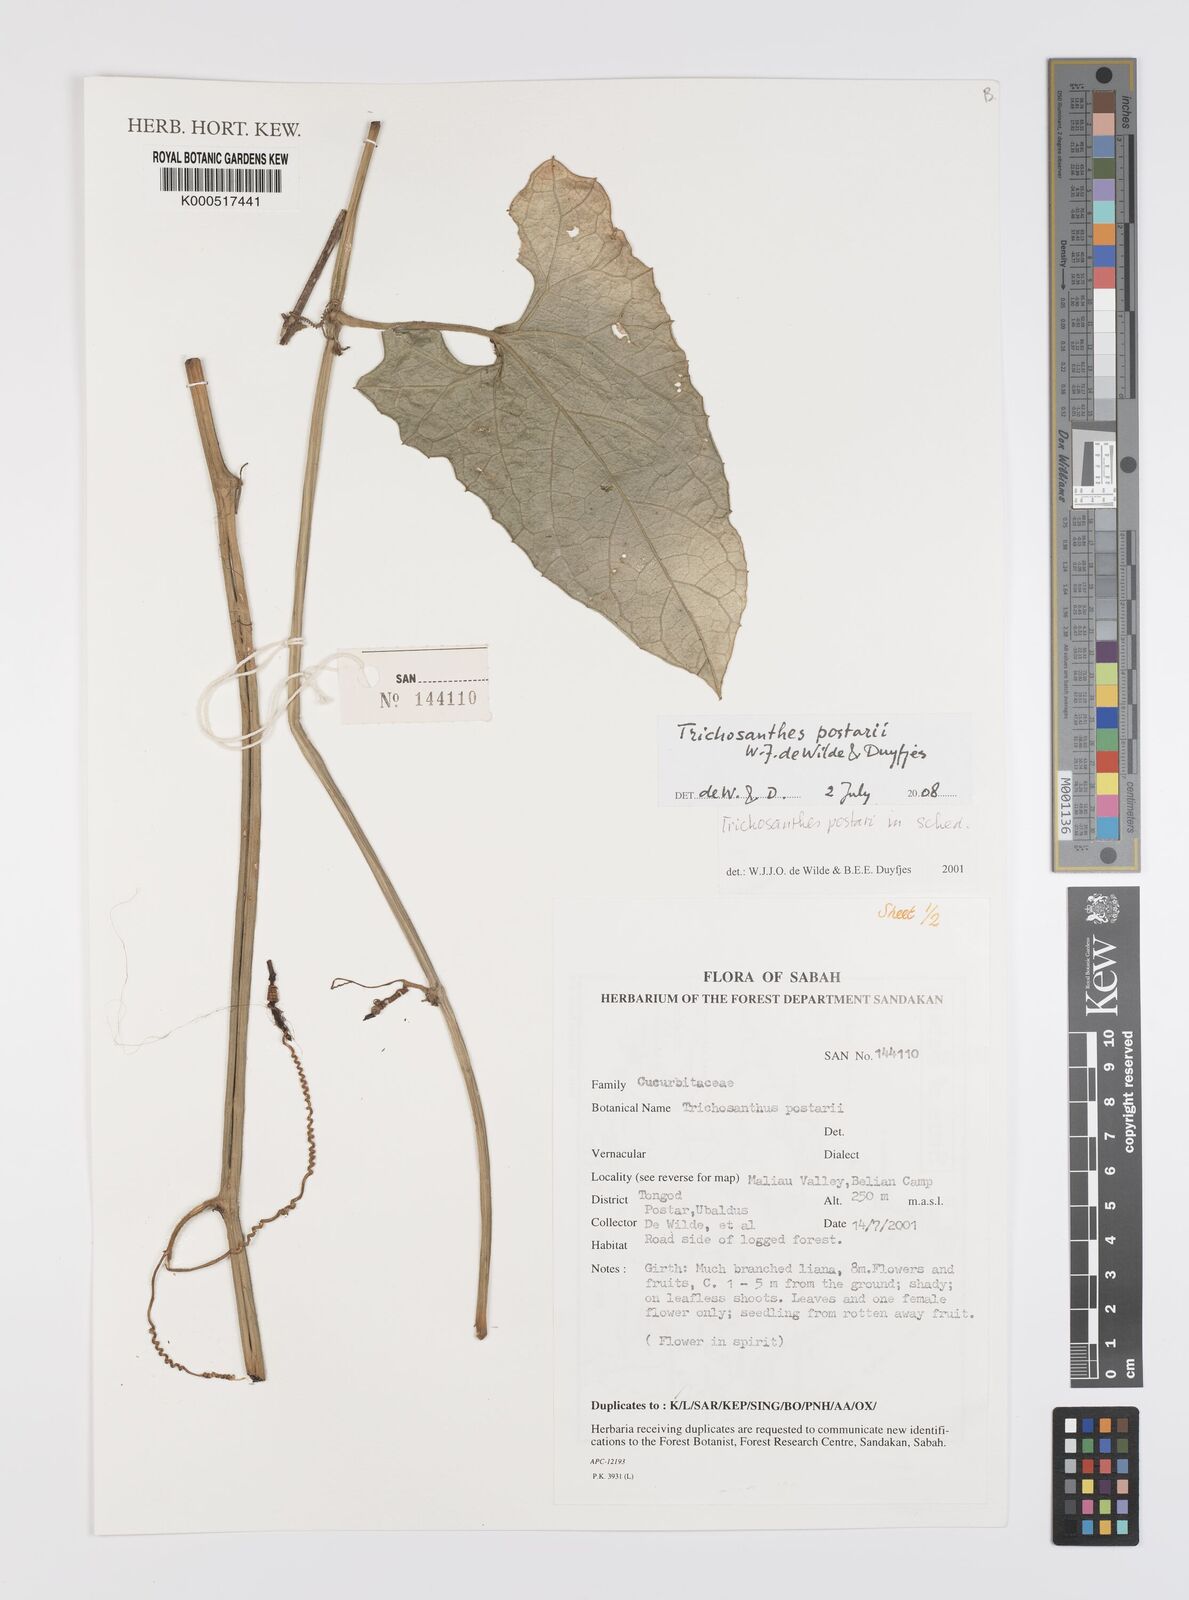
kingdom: Plantae
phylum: Tracheophyta
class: Magnoliopsida
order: Cucurbitales
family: Cucurbitaceae
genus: Trichosanthes
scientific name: Trichosanthes postarii
